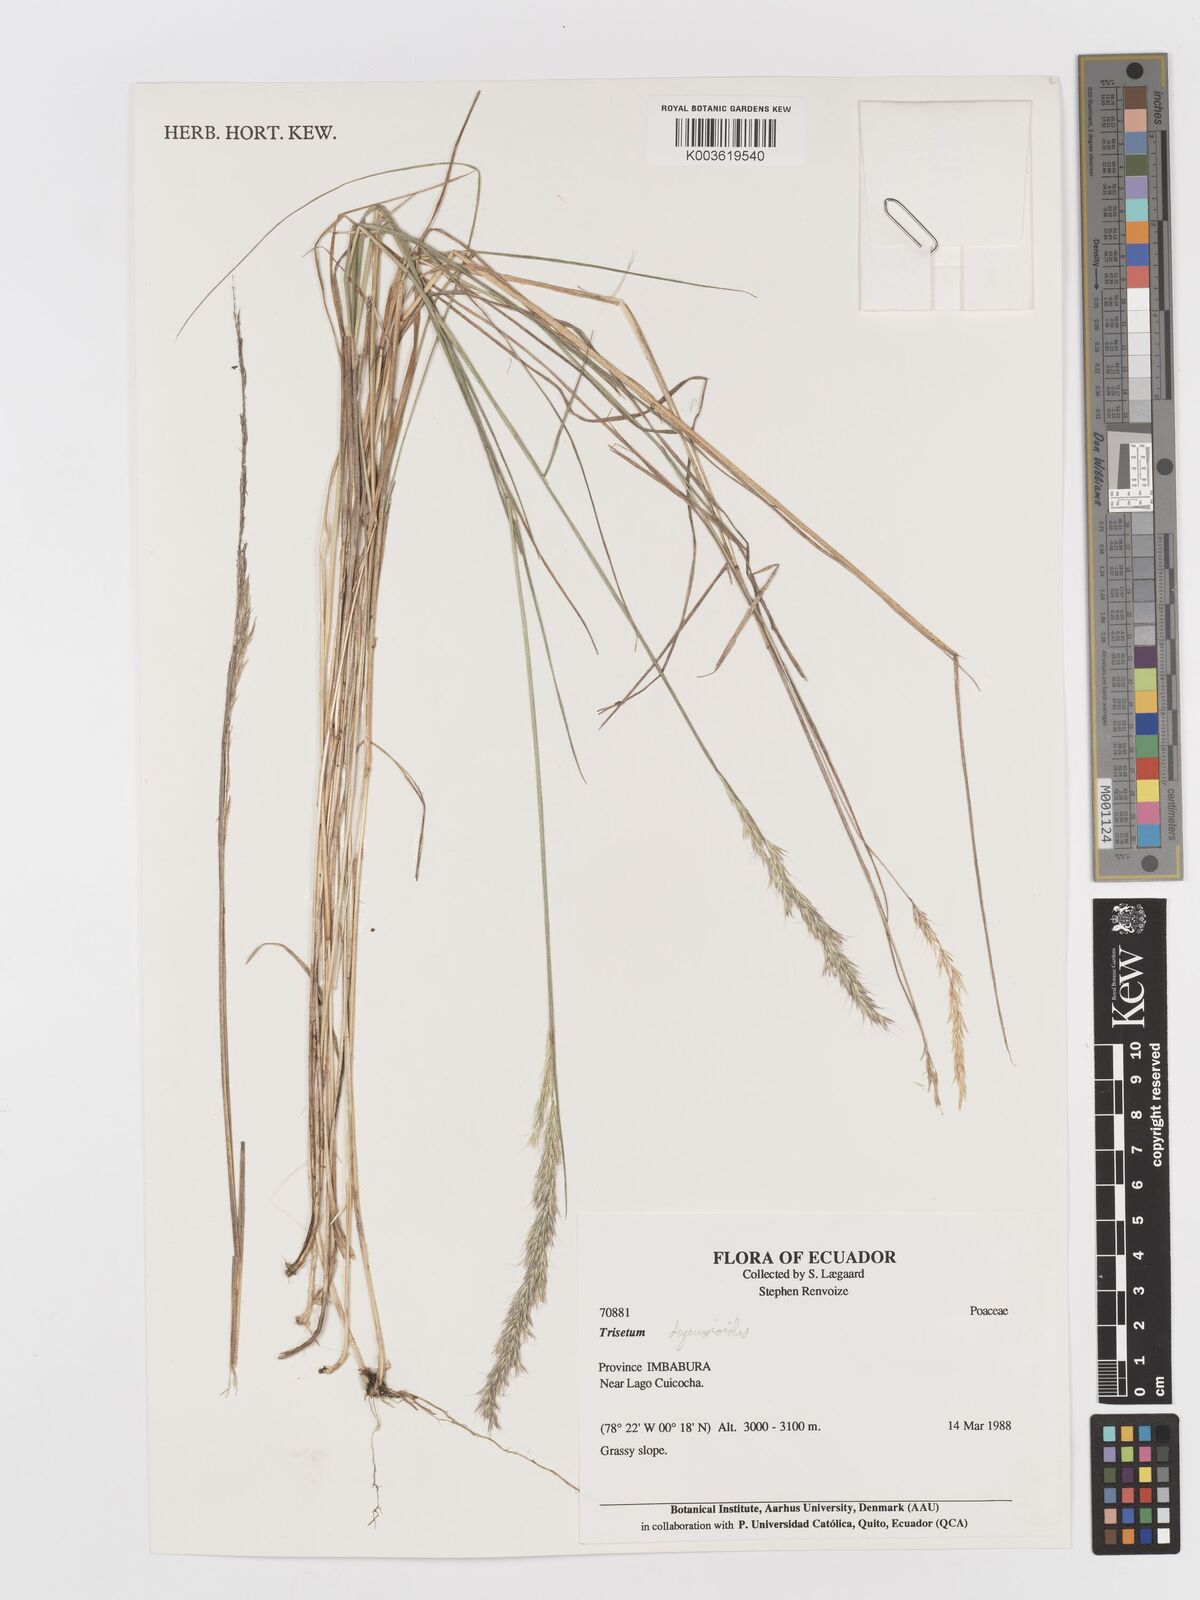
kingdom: Plantae
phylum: Tracheophyta
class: Liliopsida
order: Poales
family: Poaceae
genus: Peyritschia
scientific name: Peyritschia deyeuxioides
